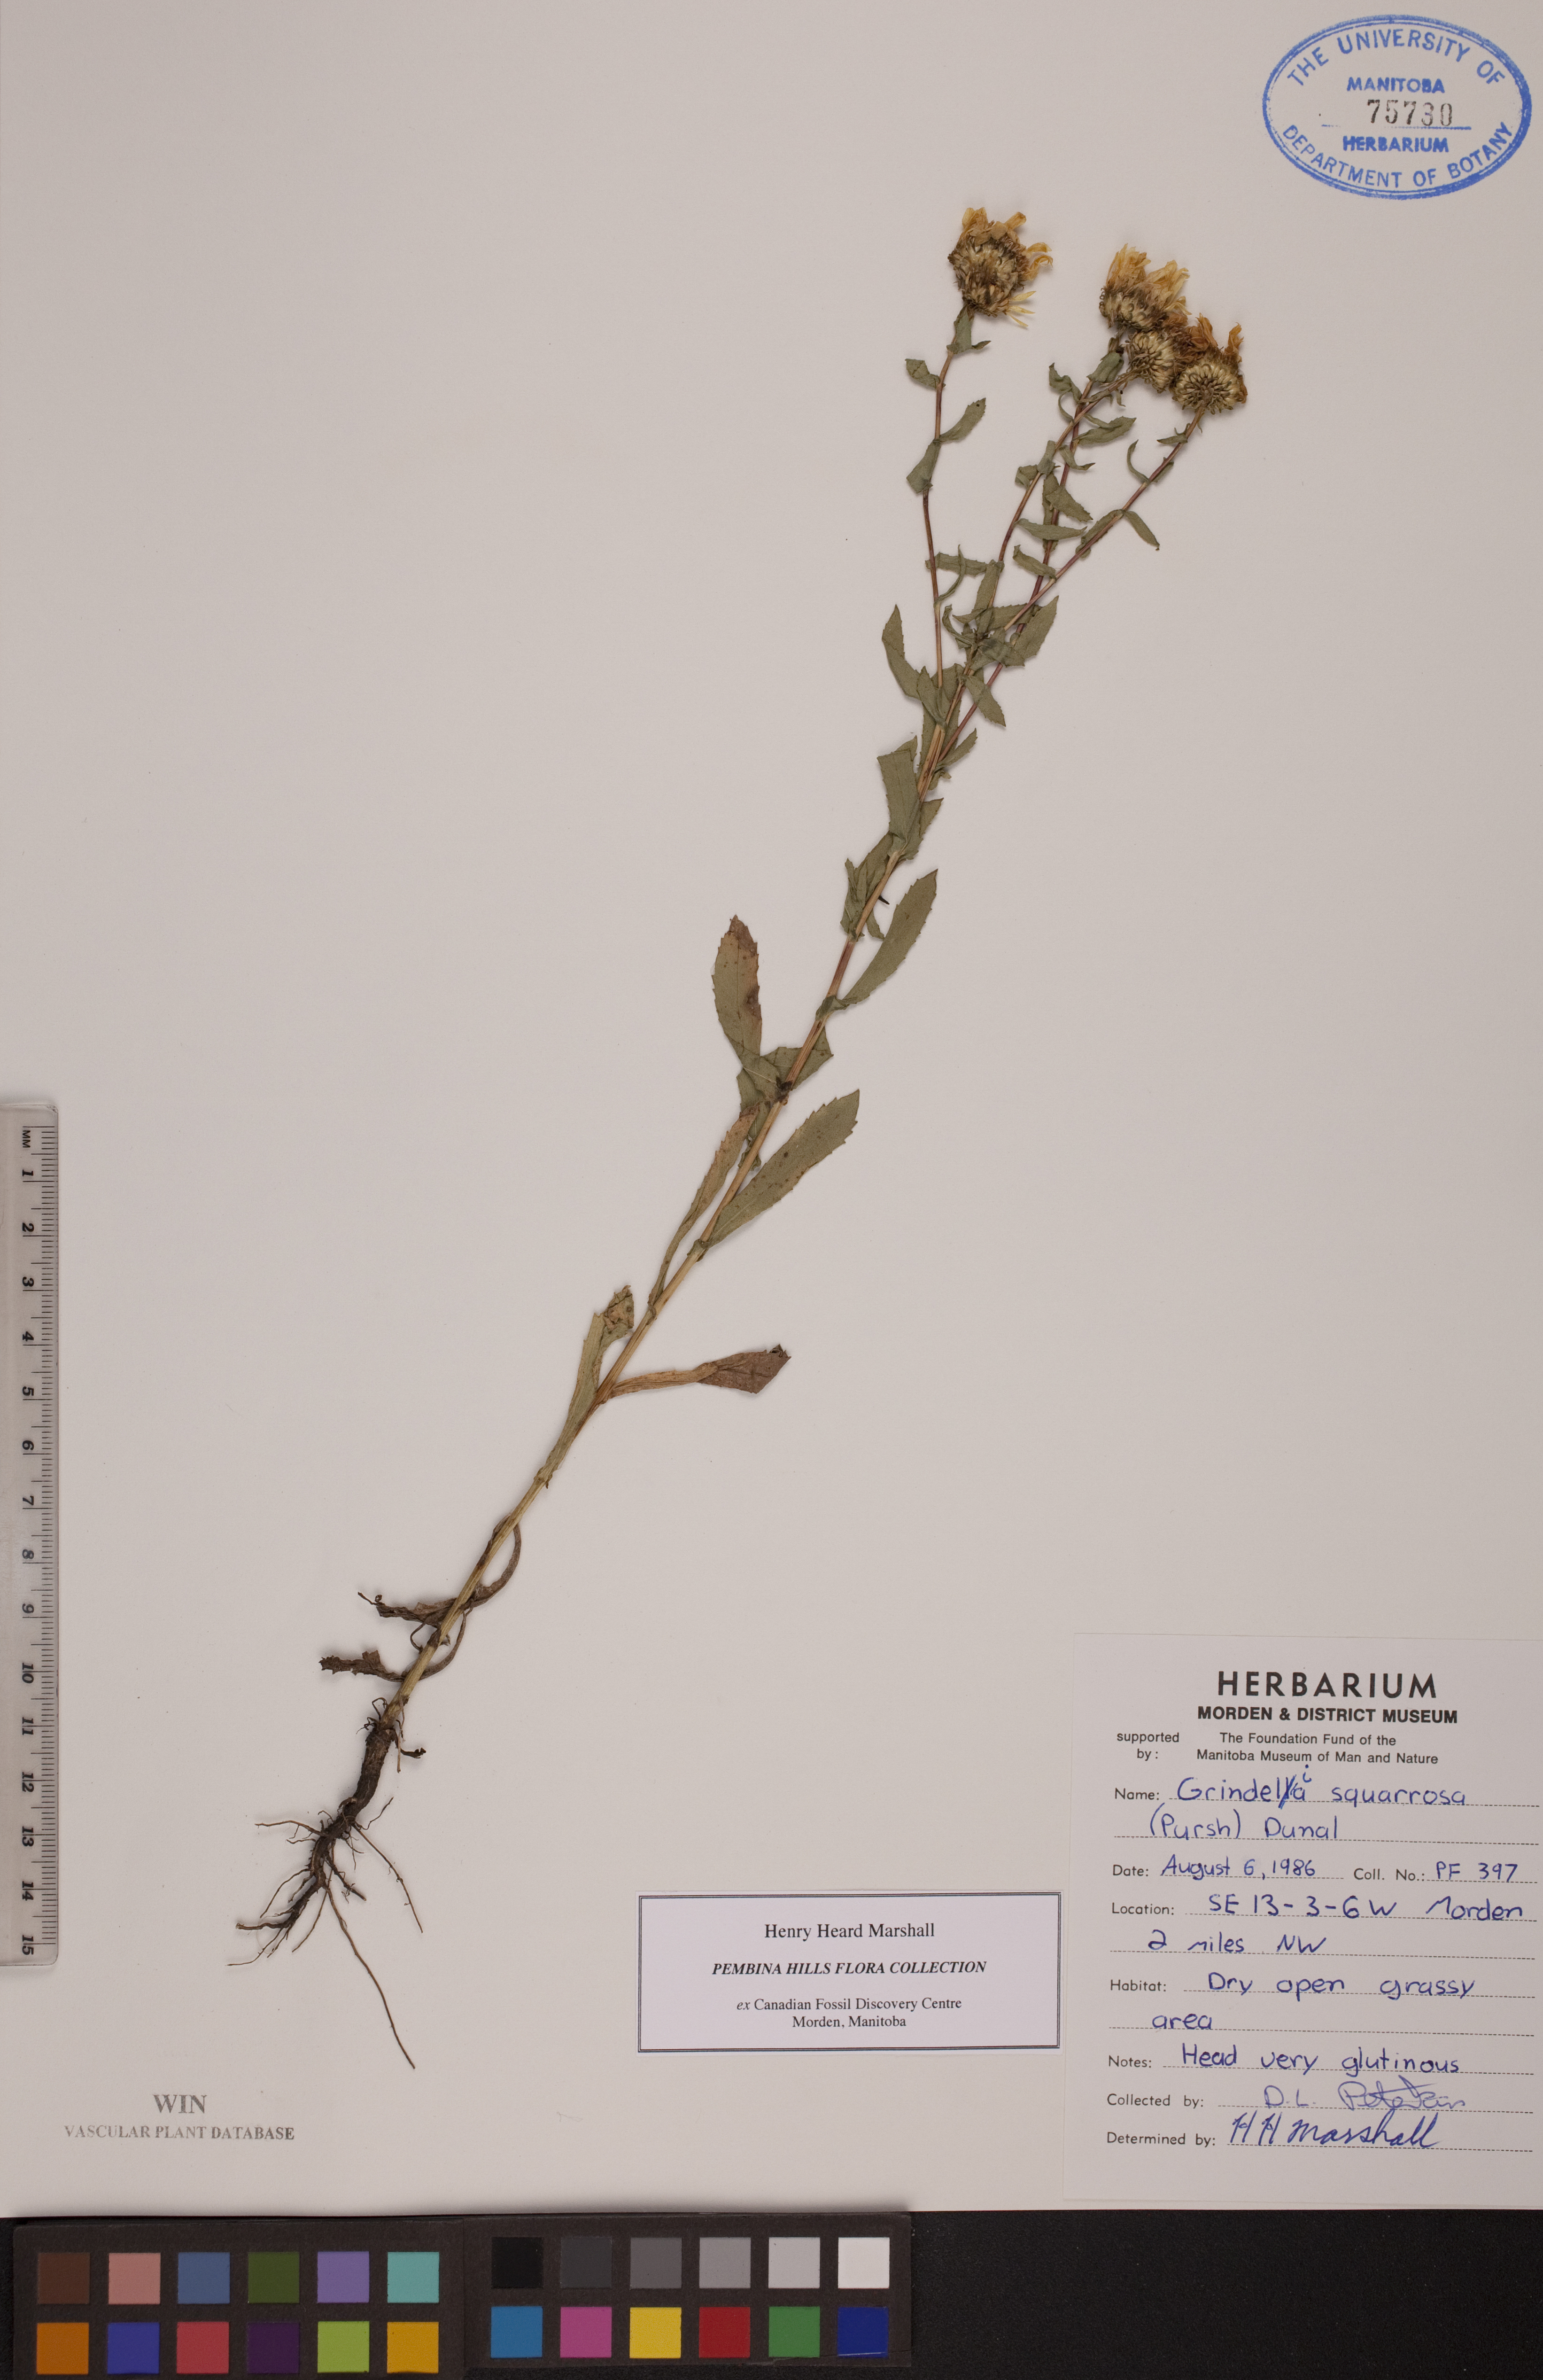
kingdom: Plantae
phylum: Tracheophyta
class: Magnoliopsida
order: Asterales
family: Asteraceae
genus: Grindelia
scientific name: Grindelia squarrosa
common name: Curly-cup gumweed
